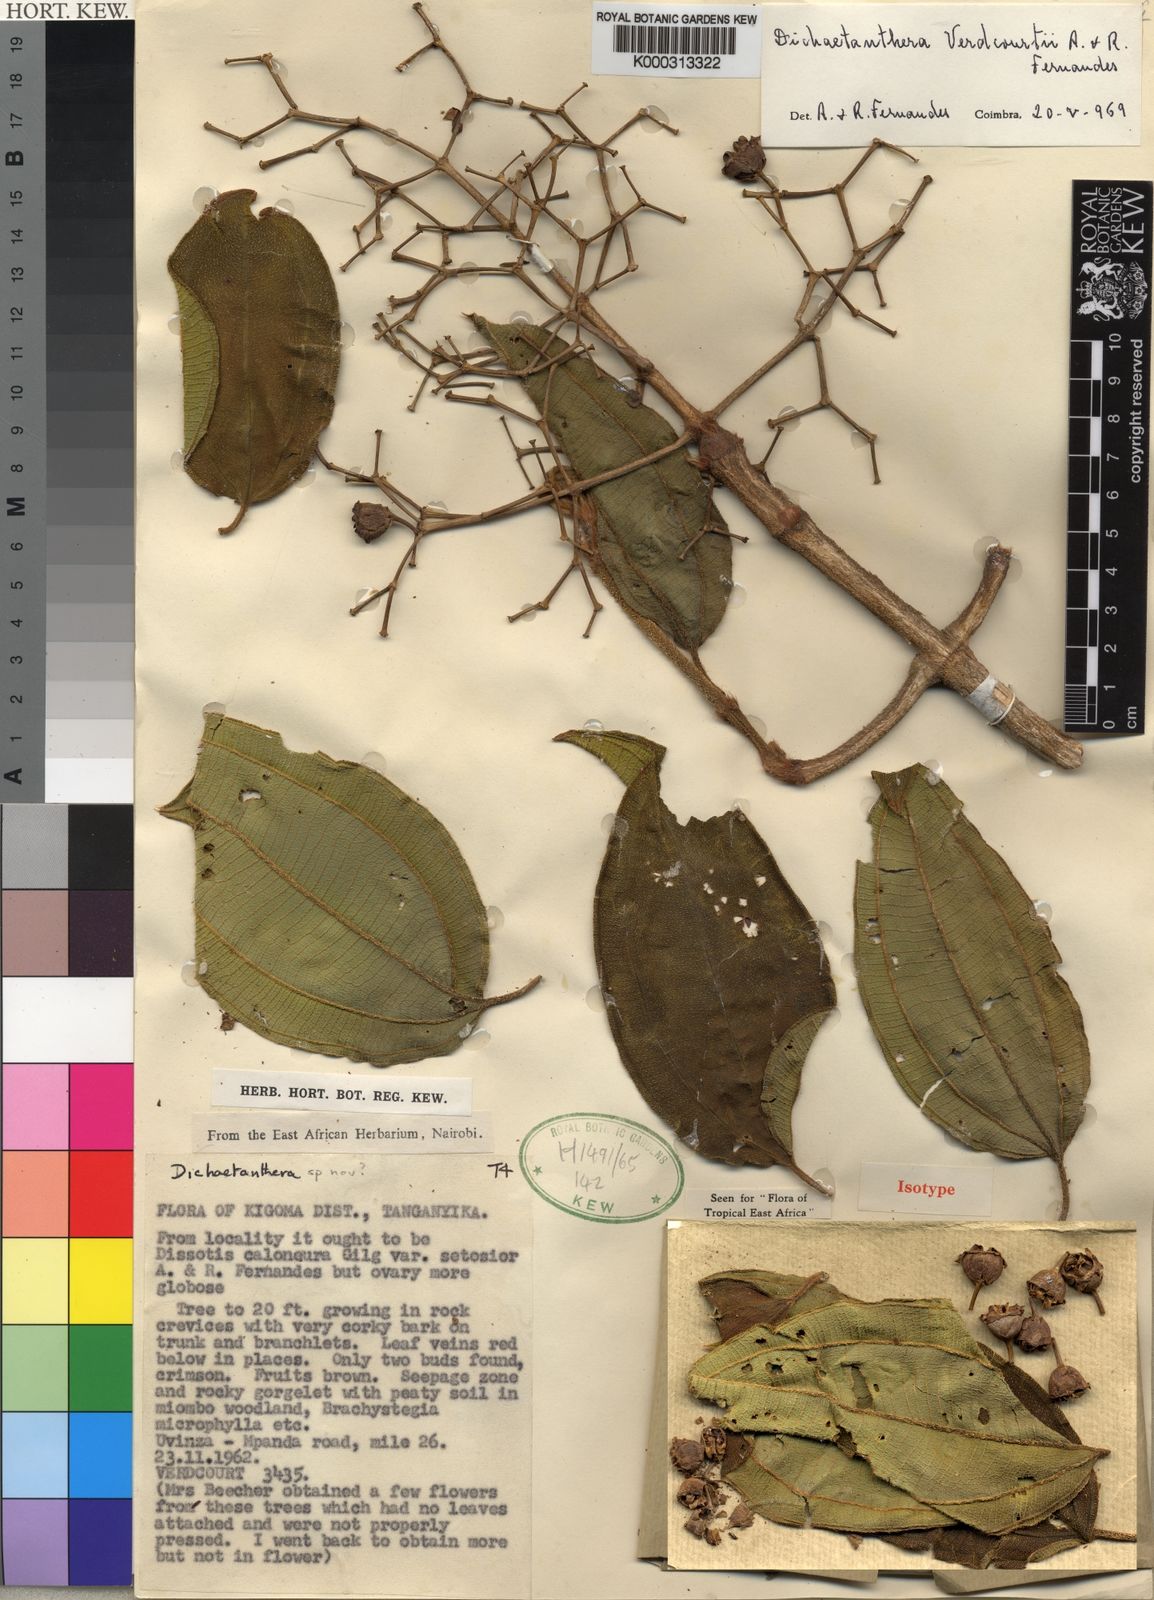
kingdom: Plantae
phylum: Tracheophyta
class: Magnoliopsida
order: Myrtales
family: Melastomataceae
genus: Dichaetanthera
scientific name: Dichaetanthera verdcourtii
